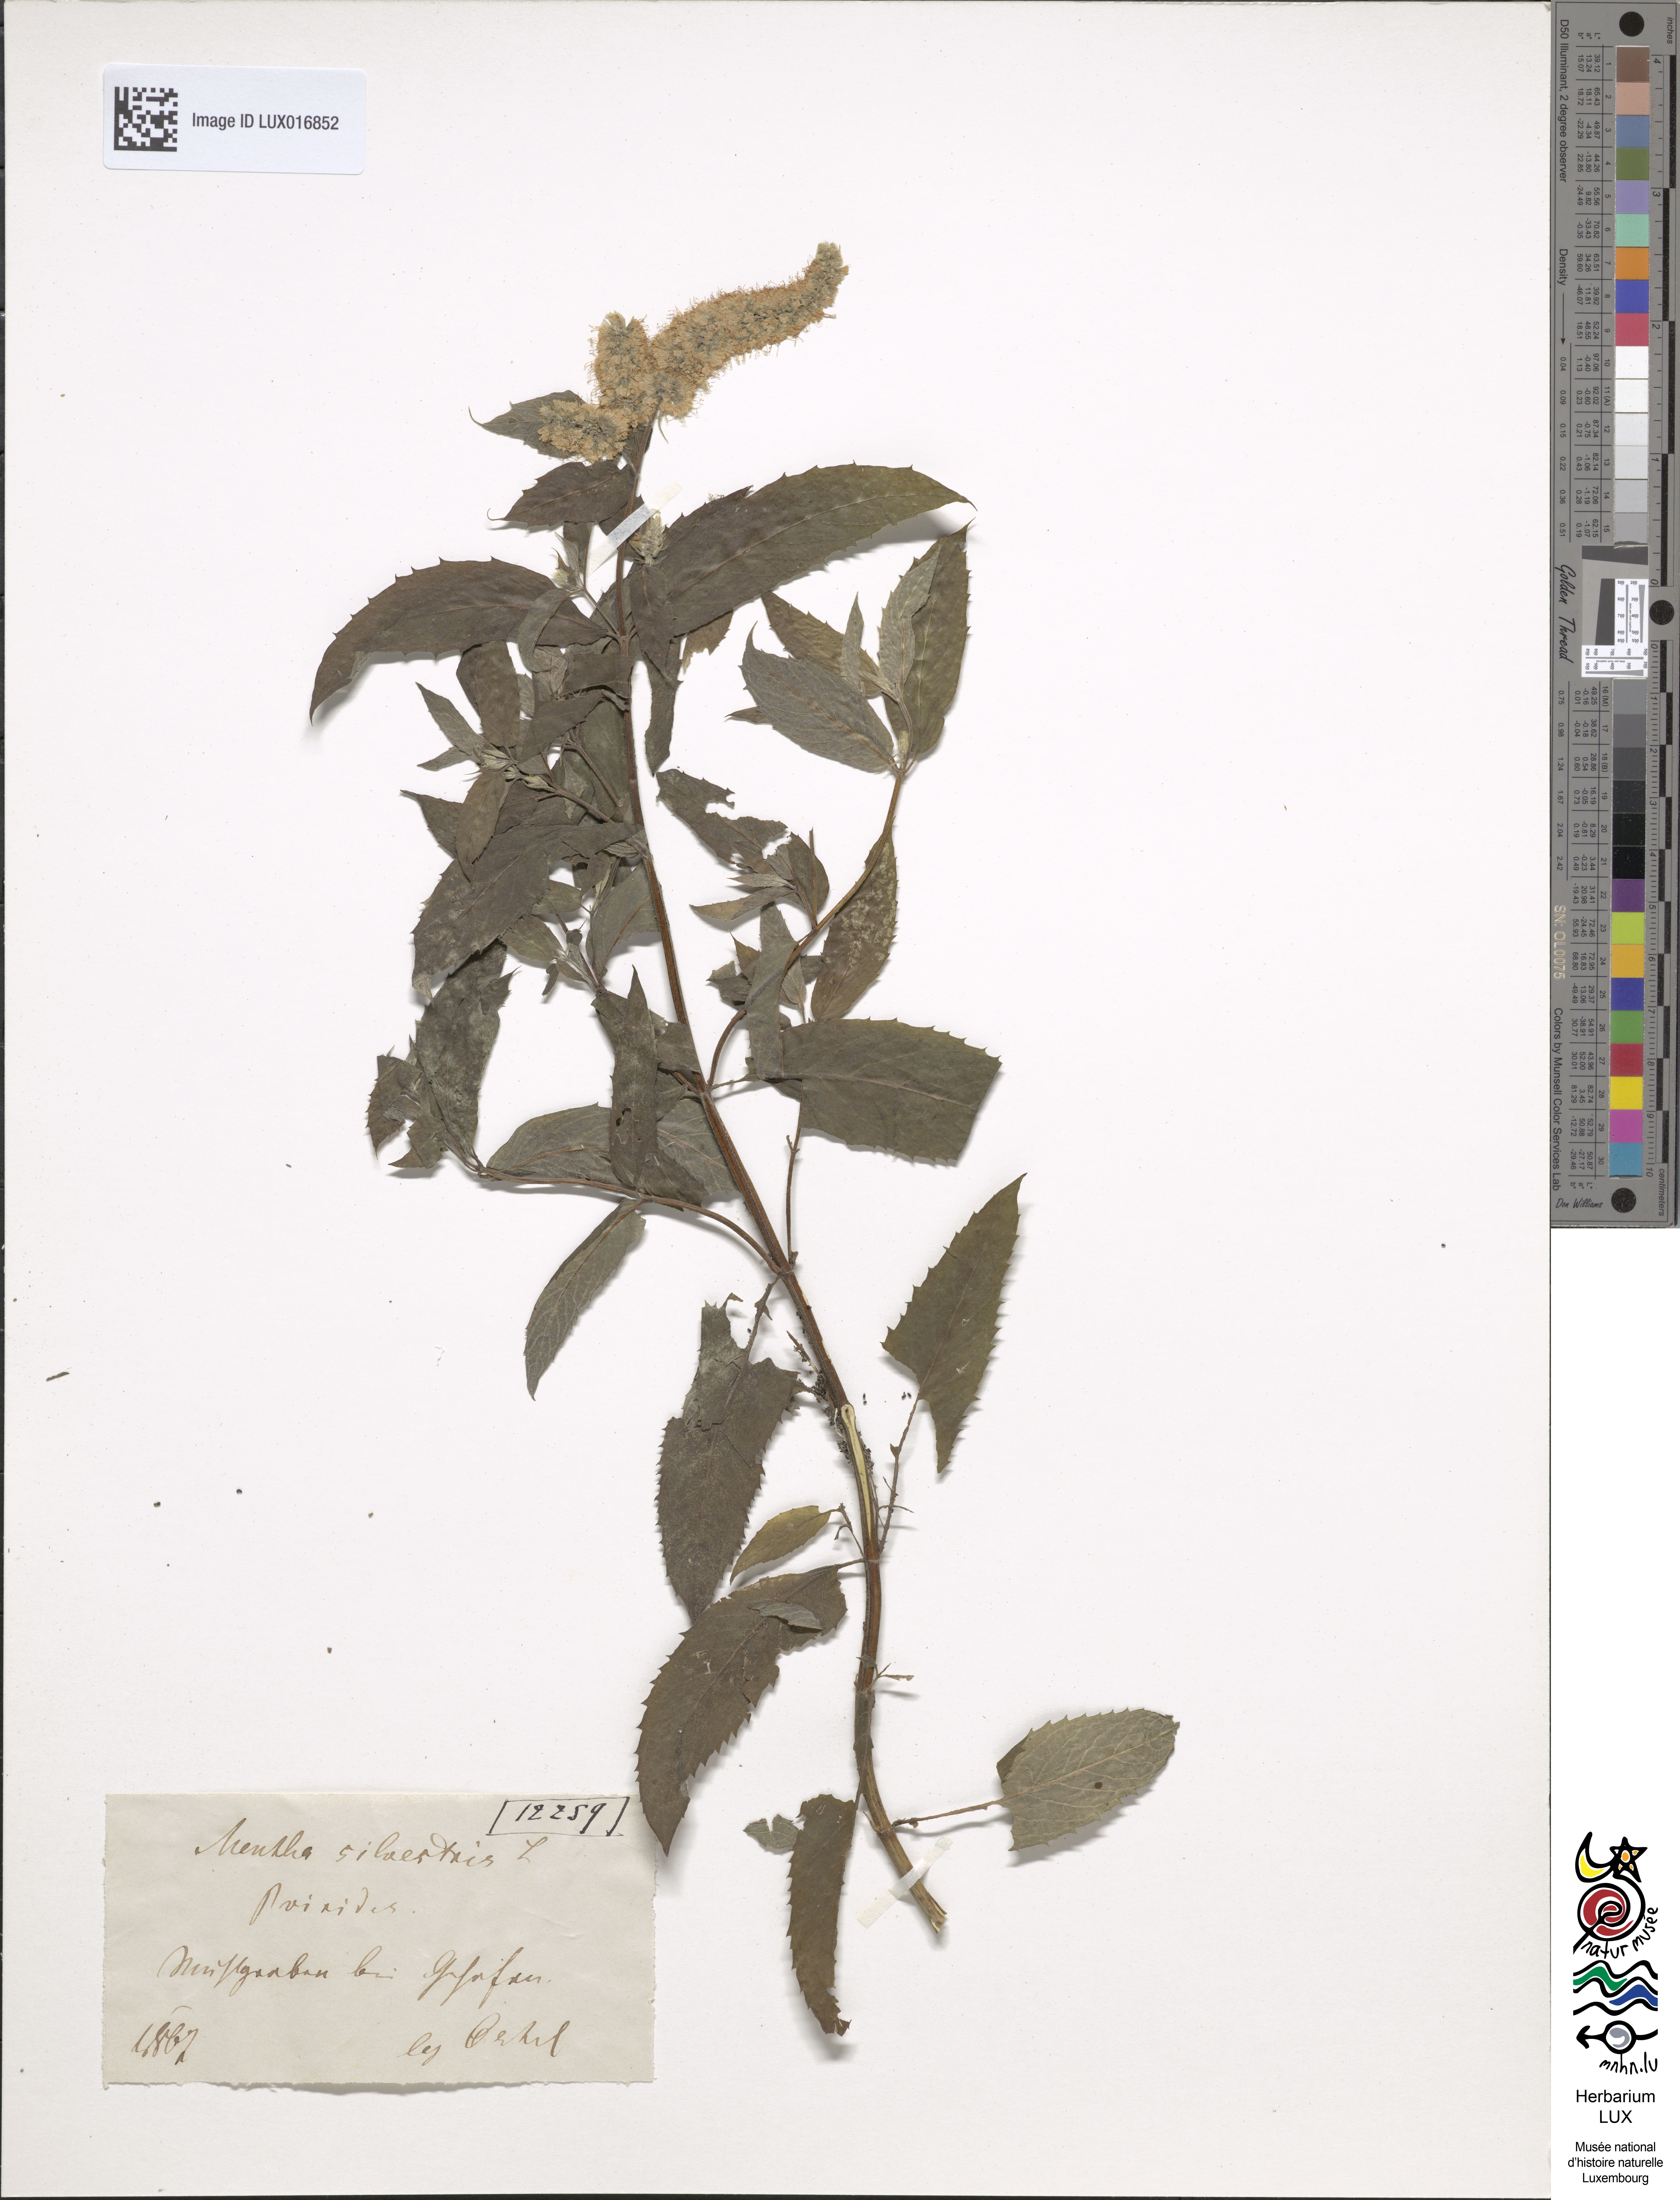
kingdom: Plantae
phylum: Tracheophyta
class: Magnoliopsida
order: Lamiales
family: Lamiaceae
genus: Mentha
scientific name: Mentha spicata
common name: Spearmint
